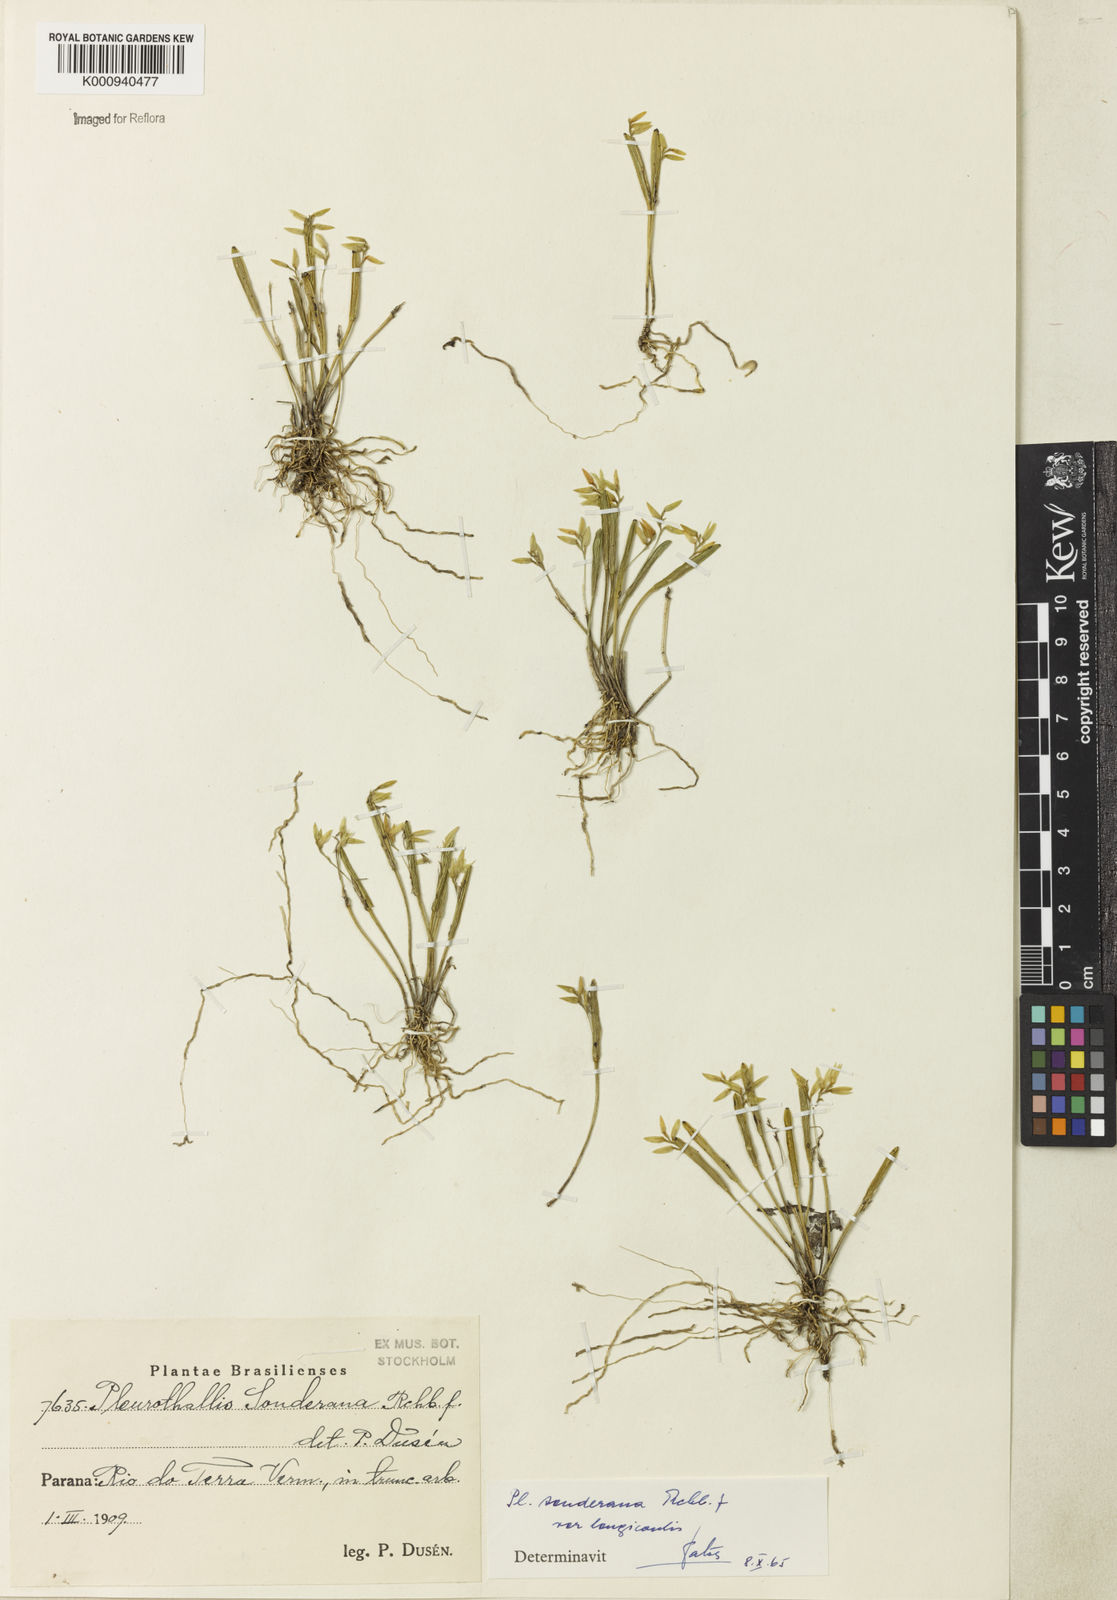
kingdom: Plantae
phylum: Tracheophyta
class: Liliopsida
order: Asparagales
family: Orchidaceae
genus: Acianthera
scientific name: Acianthera sonderiana
